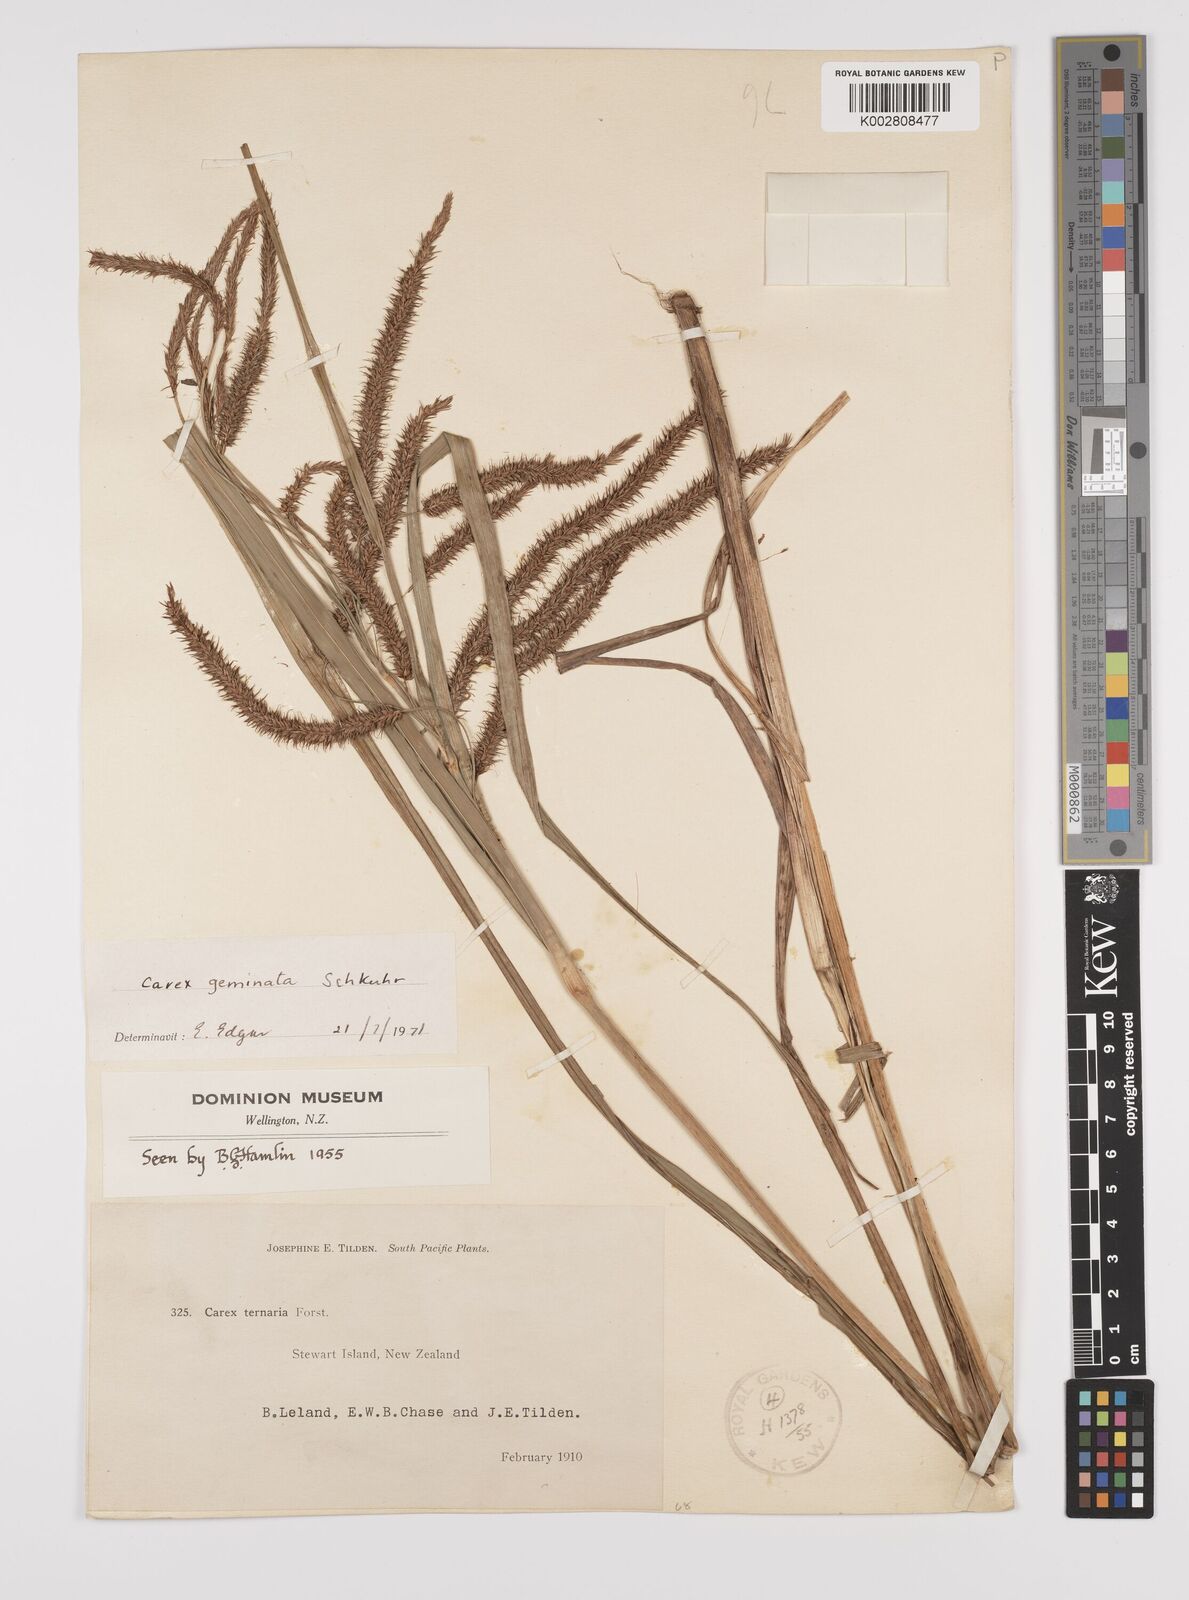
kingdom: Plantae
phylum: Tracheophyta
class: Liliopsida
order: Poales
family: Cyperaceae
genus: Carex
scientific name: Carex geminata
